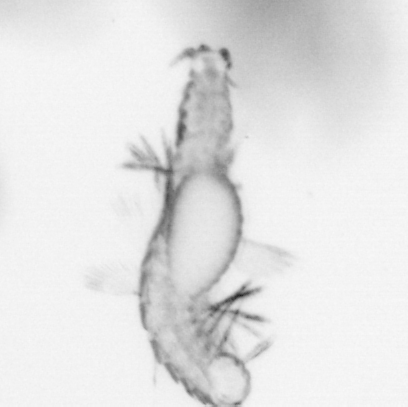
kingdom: Animalia
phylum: Annelida
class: Polychaeta
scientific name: Polychaeta
